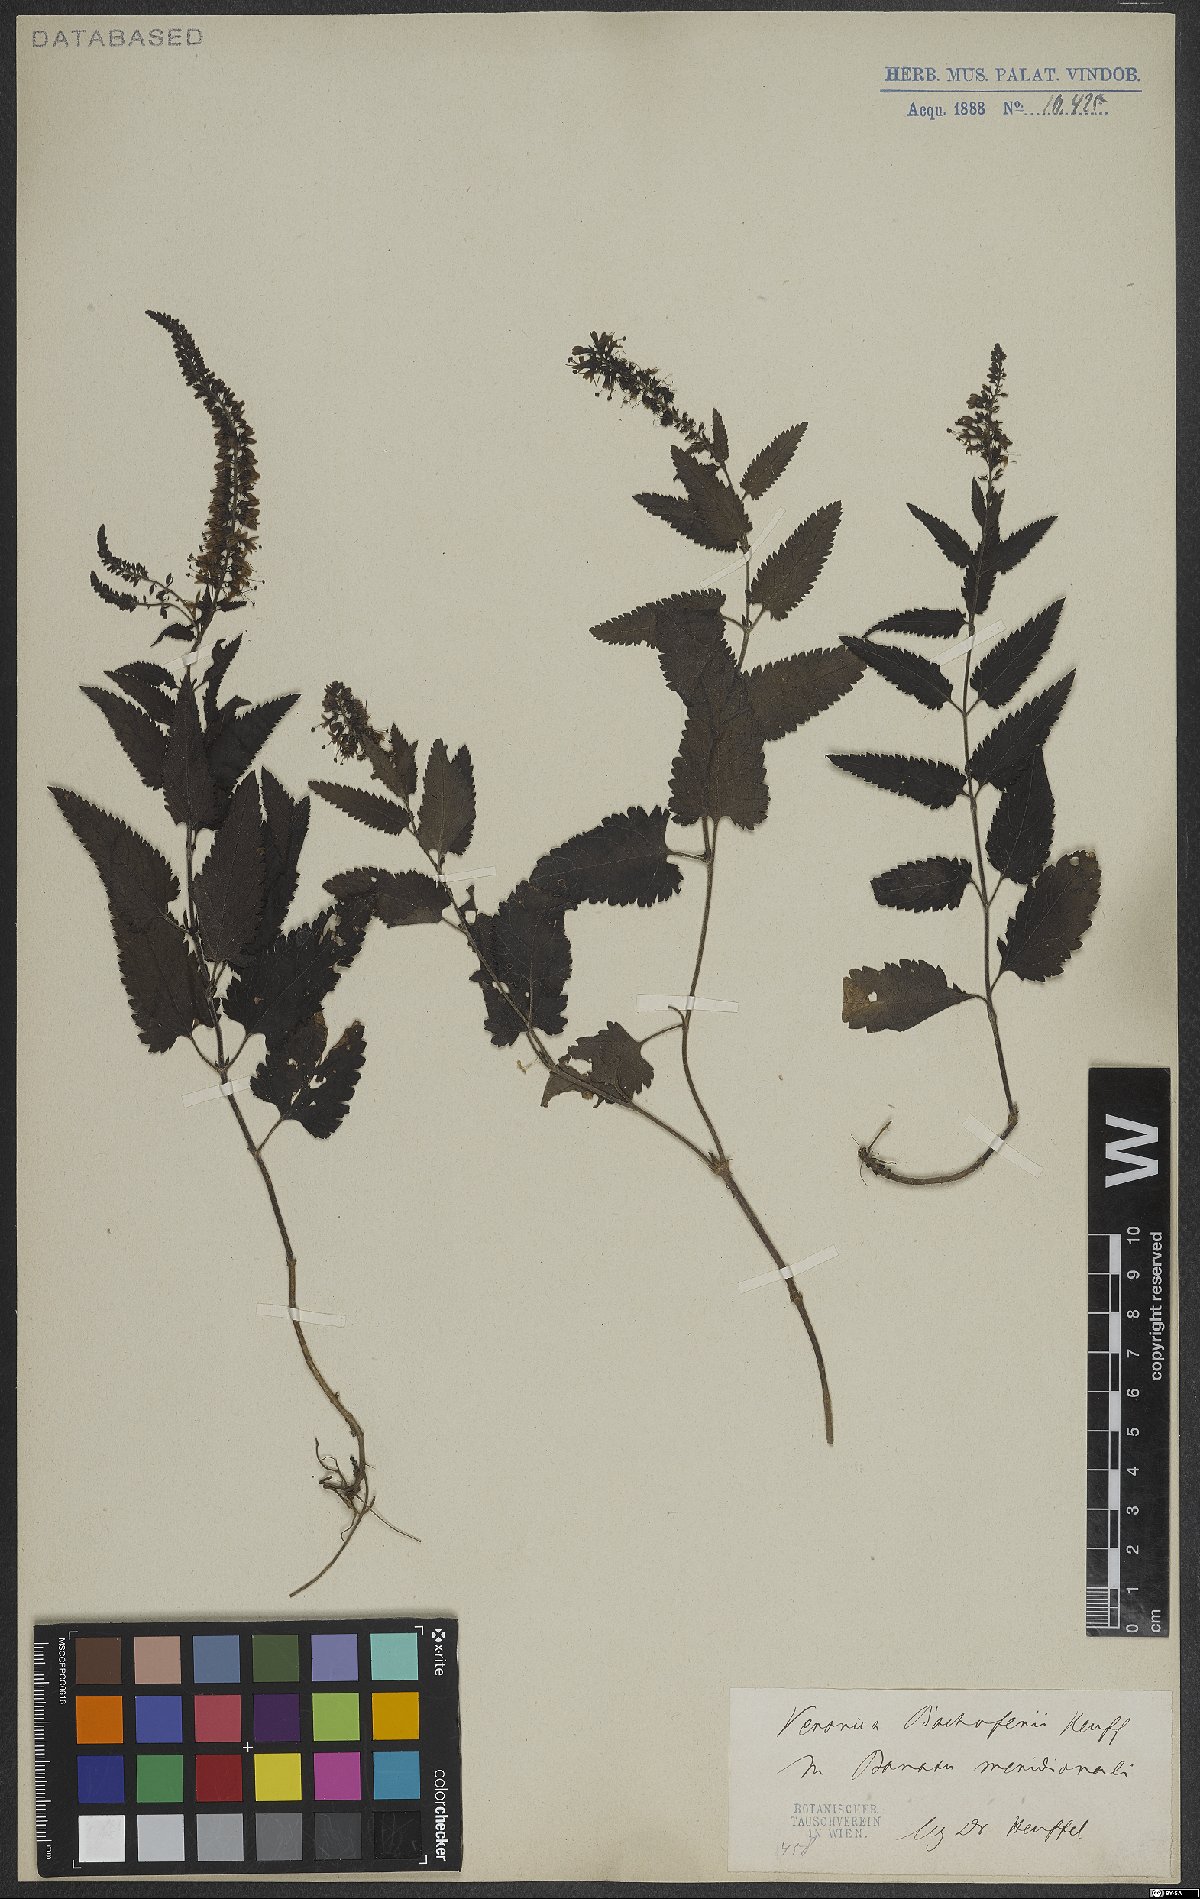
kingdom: Plantae
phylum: Tracheophyta
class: Magnoliopsida
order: Lamiales
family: Plantaginaceae
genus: Veronica
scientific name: Veronica bachofenii
